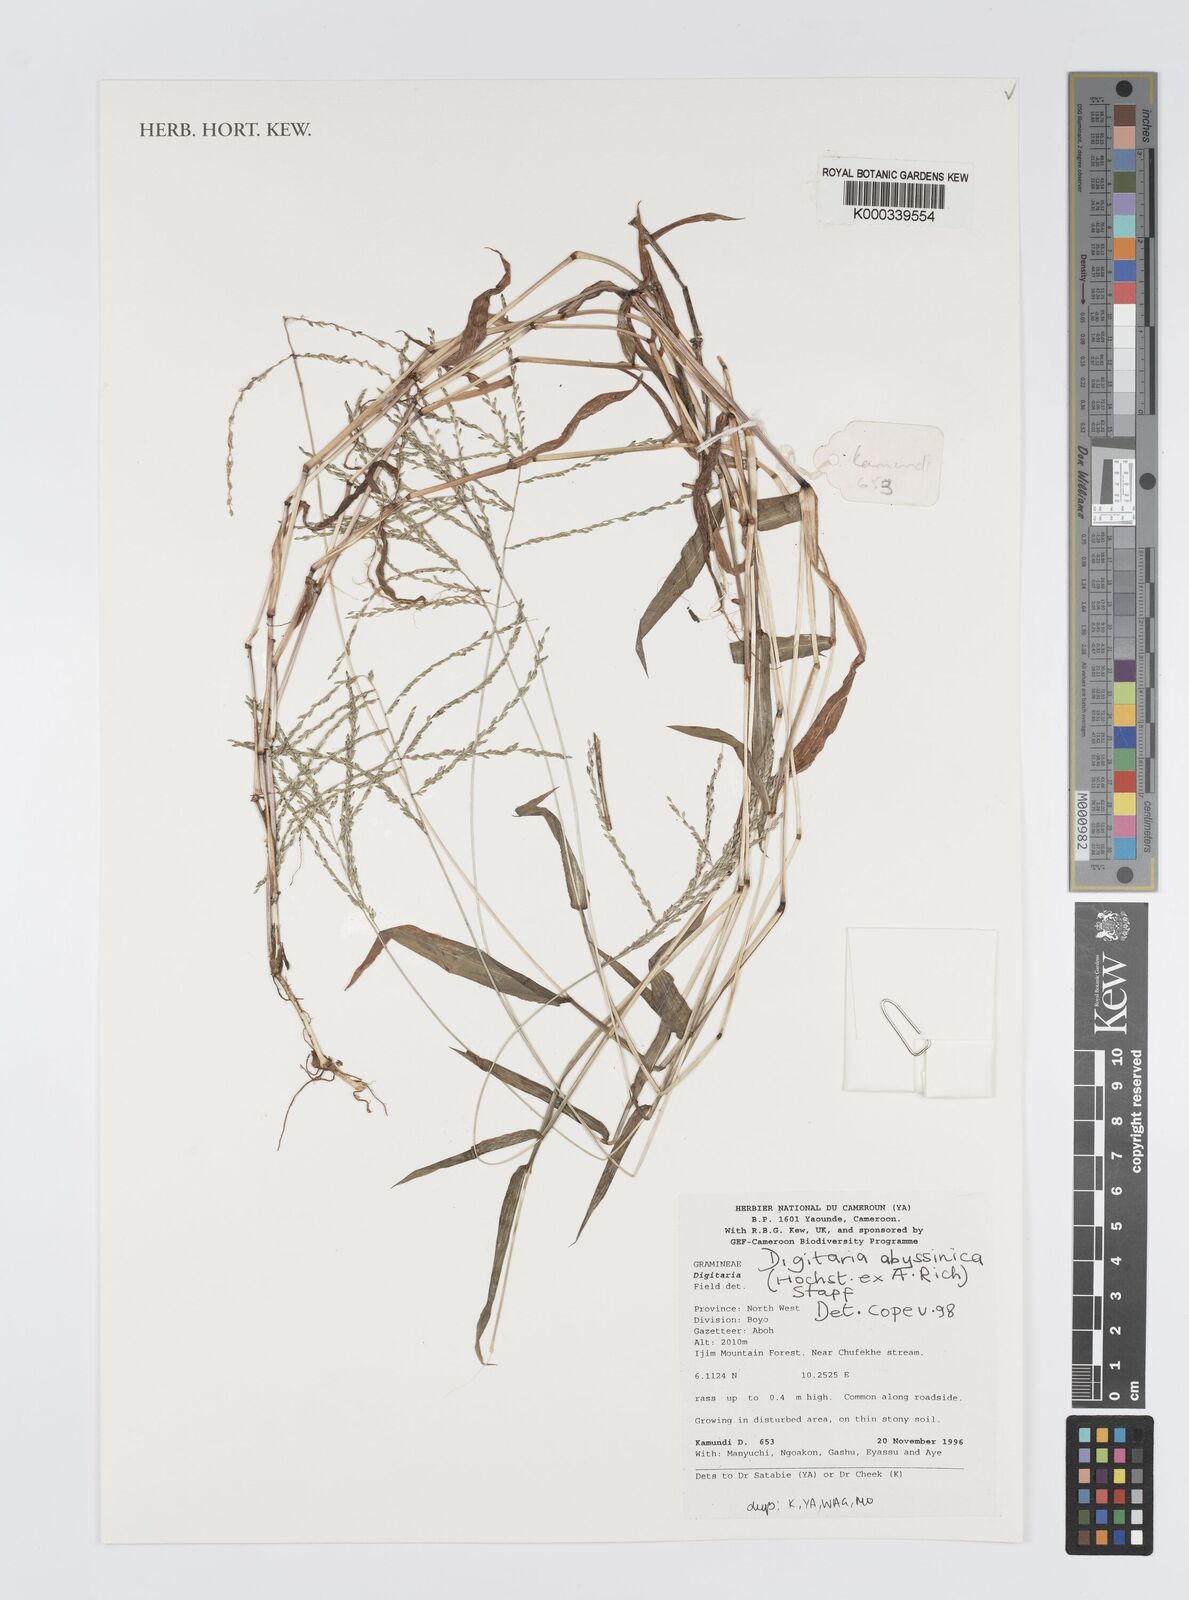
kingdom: Plantae
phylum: Tracheophyta
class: Liliopsida
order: Poales
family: Poaceae
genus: Digitaria
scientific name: Digitaria abyssinica
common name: African couchgrass
